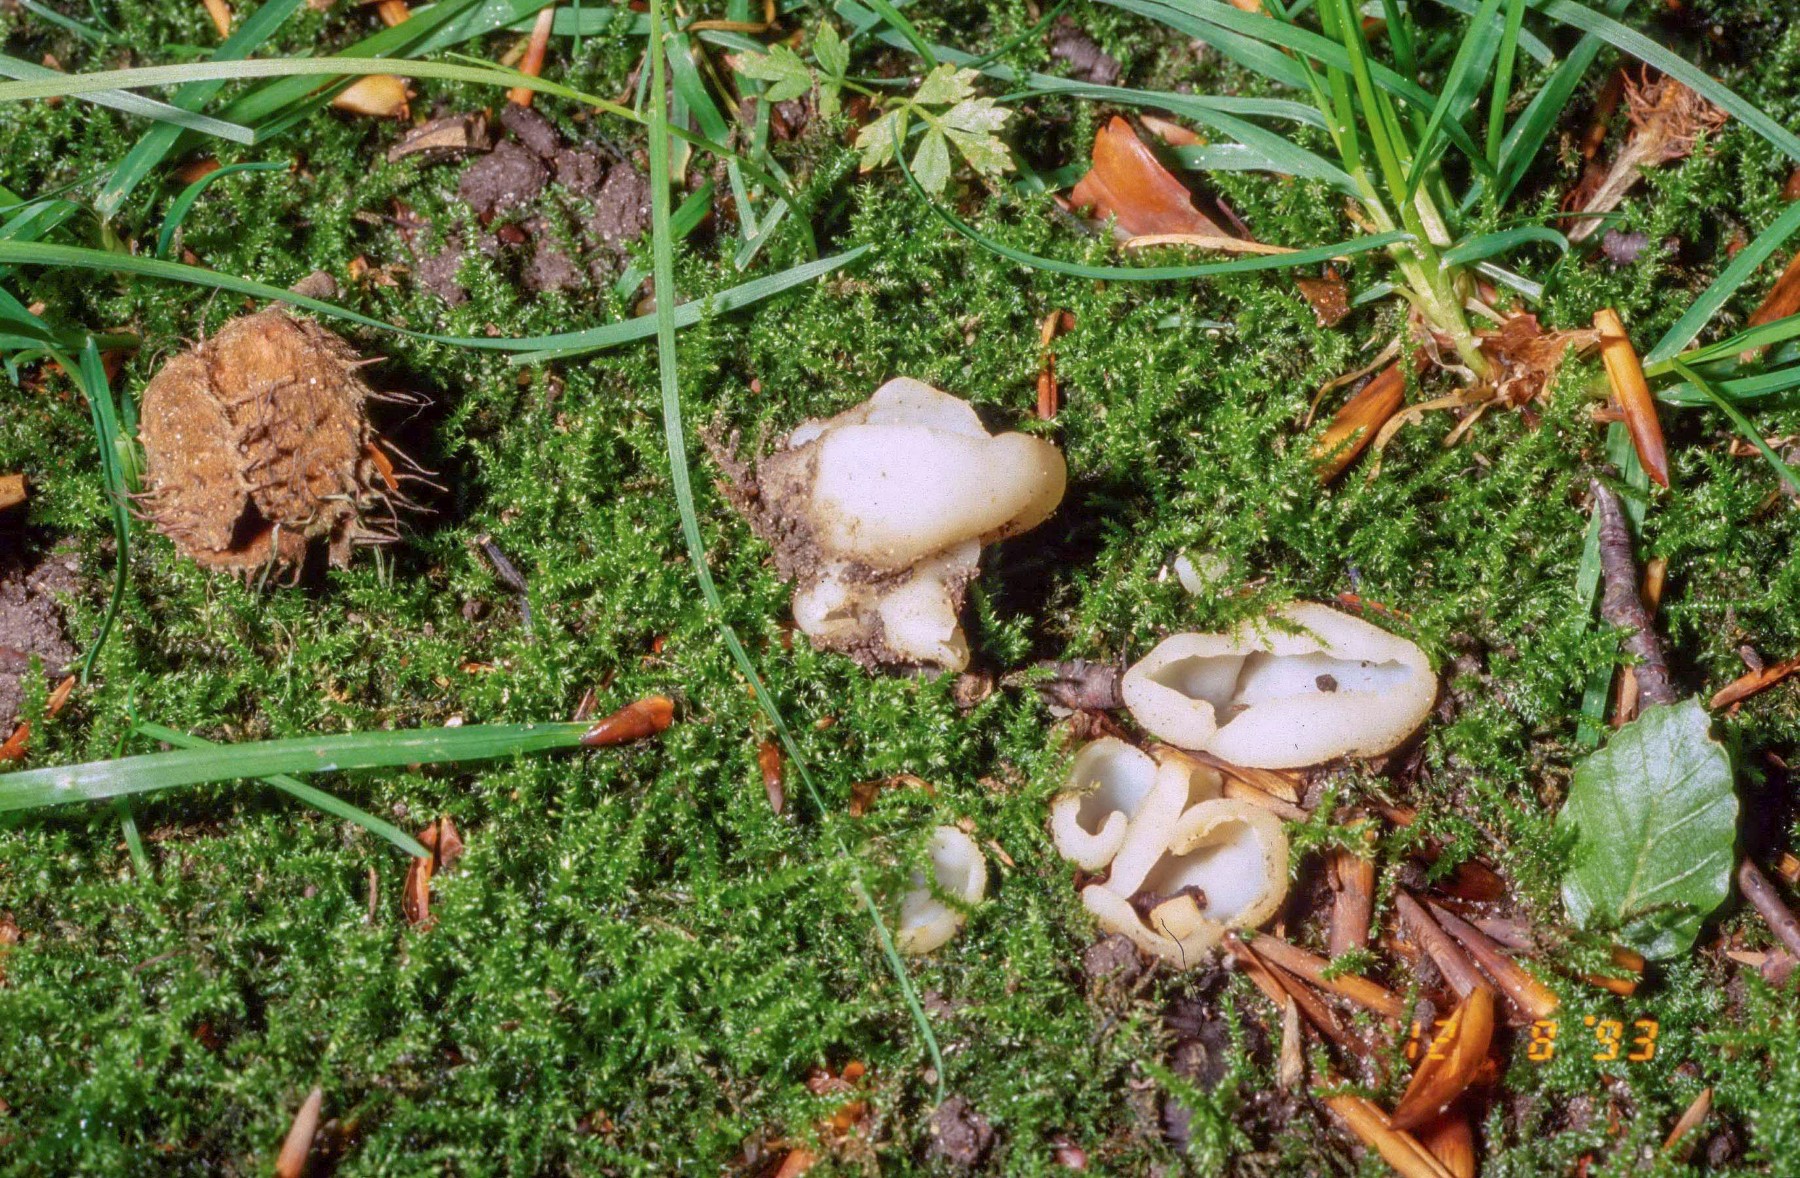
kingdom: Fungi
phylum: Ascomycota
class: Pezizomycetes
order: Pezizales
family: Pezizaceae
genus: Peziza
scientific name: Peziza pudicella
